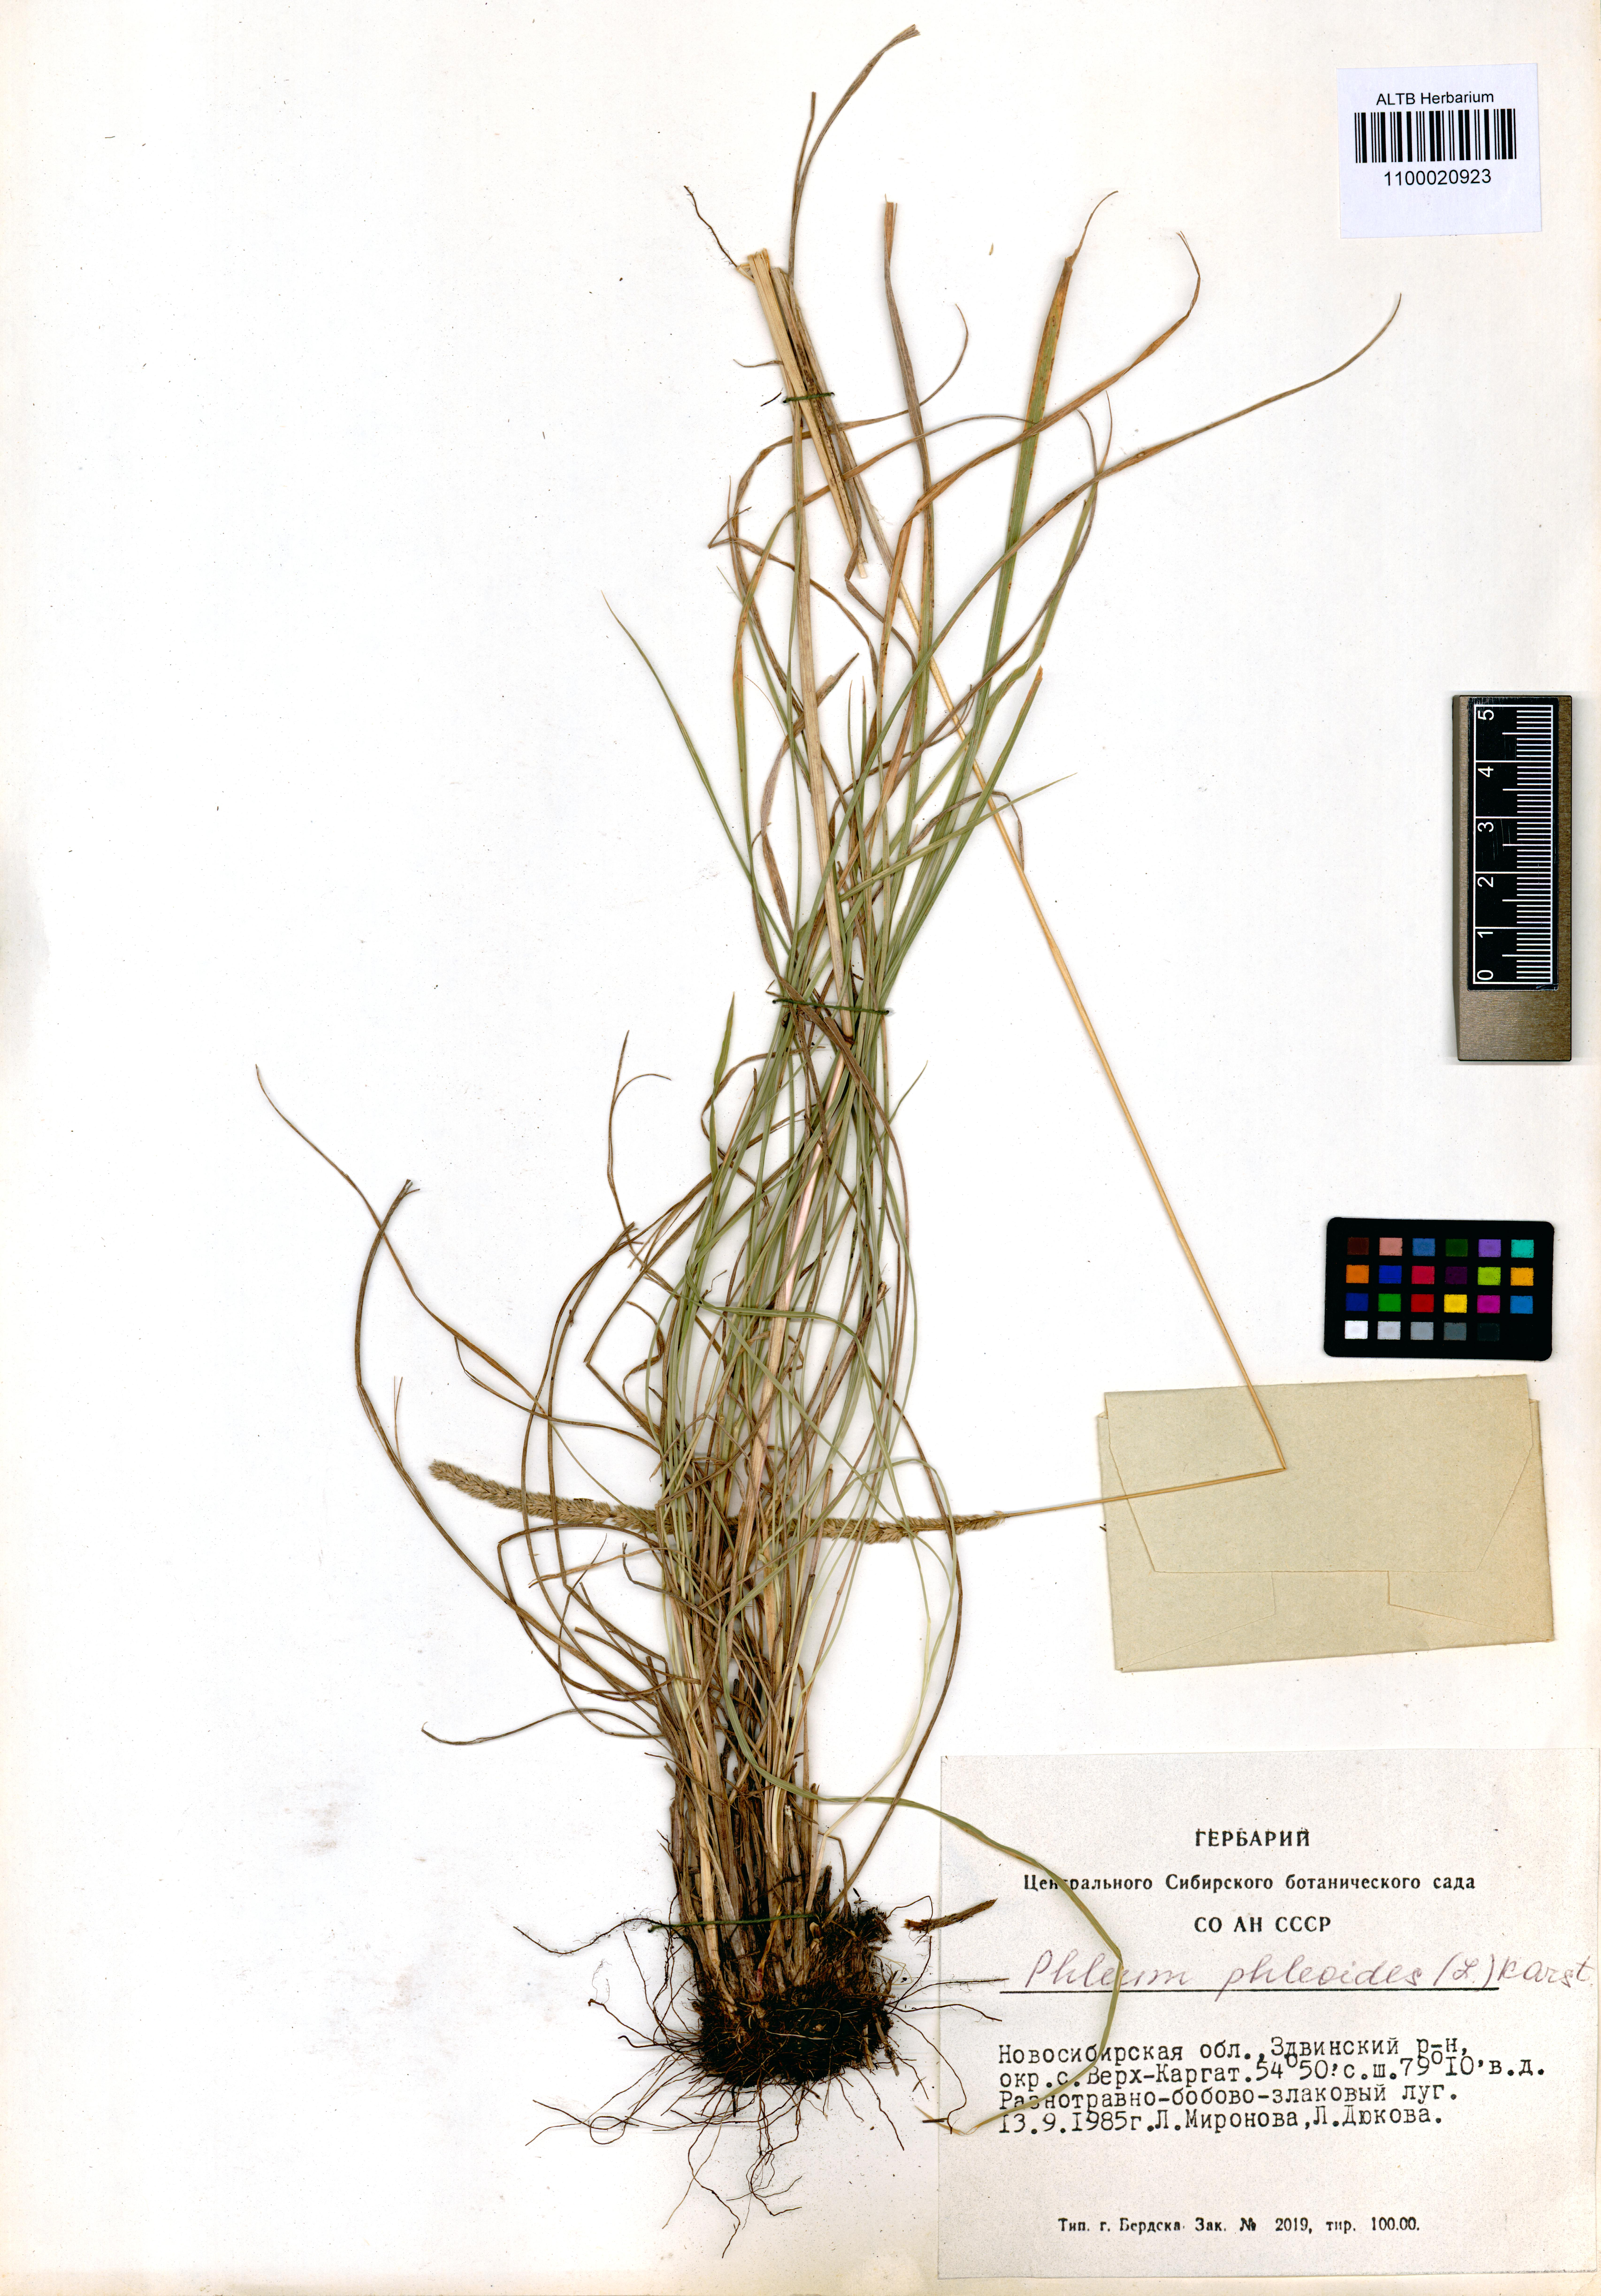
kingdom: Plantae
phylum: Tracheophyta
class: Liliopsida
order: Poales
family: Poaceae
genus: Phleum
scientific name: Phleum phleoides
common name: Purple-stem cat's-tail
